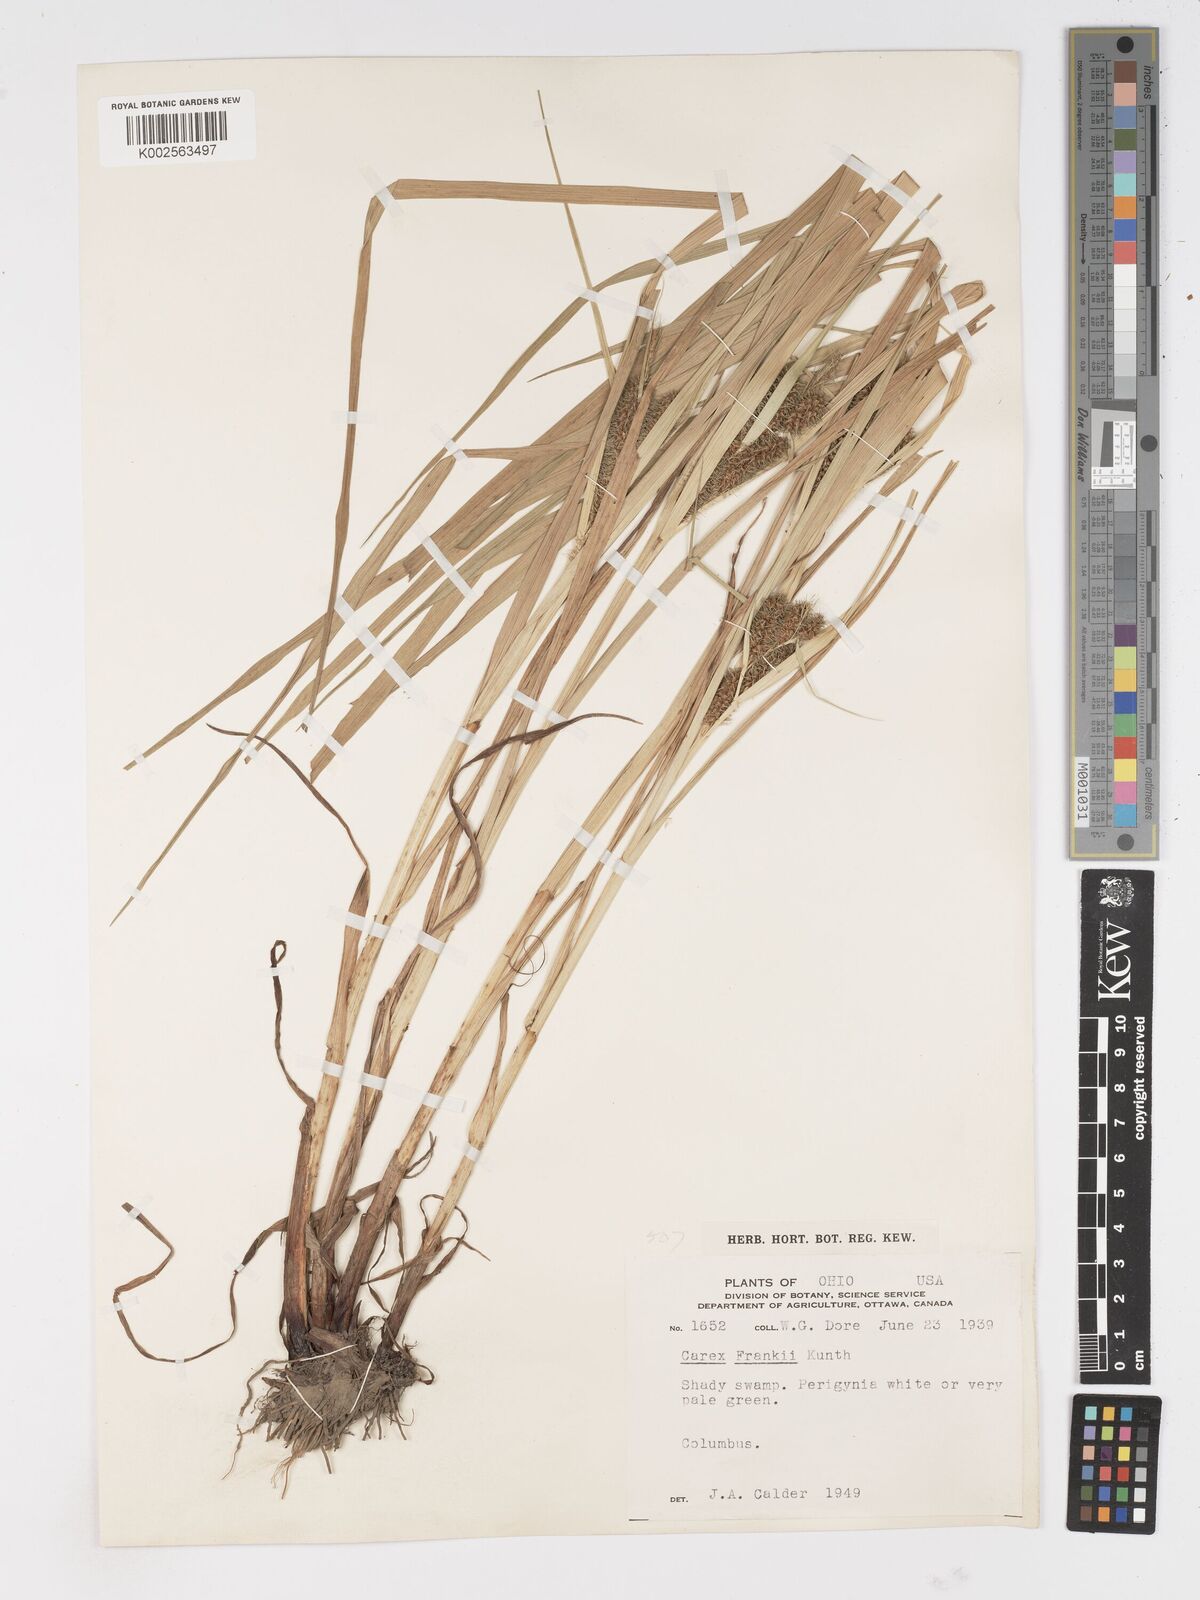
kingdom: Plantae
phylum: Tracheophyta
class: Liliopsida
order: Poales
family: Cyperaceae
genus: Carex
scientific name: Carex frankii
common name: Frank's sedge
